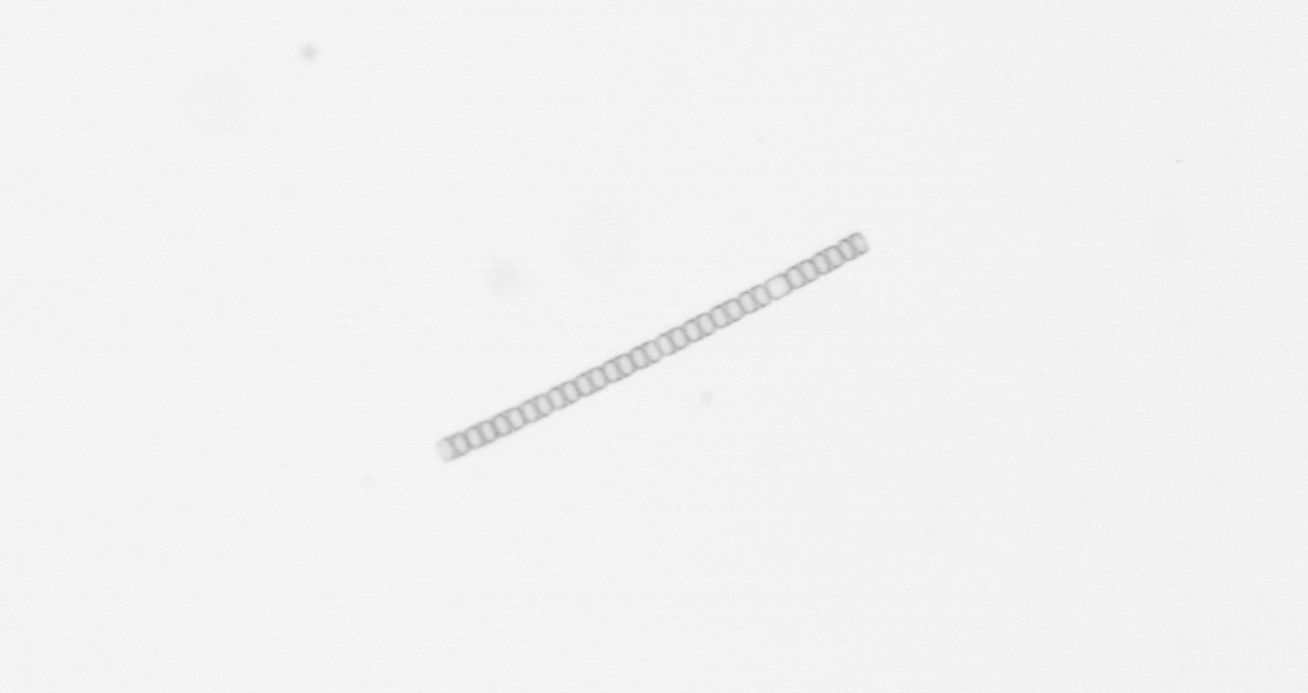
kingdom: Chromista
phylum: Ochrophyta
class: Bacillariophyceae
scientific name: Bacillariophyceae
